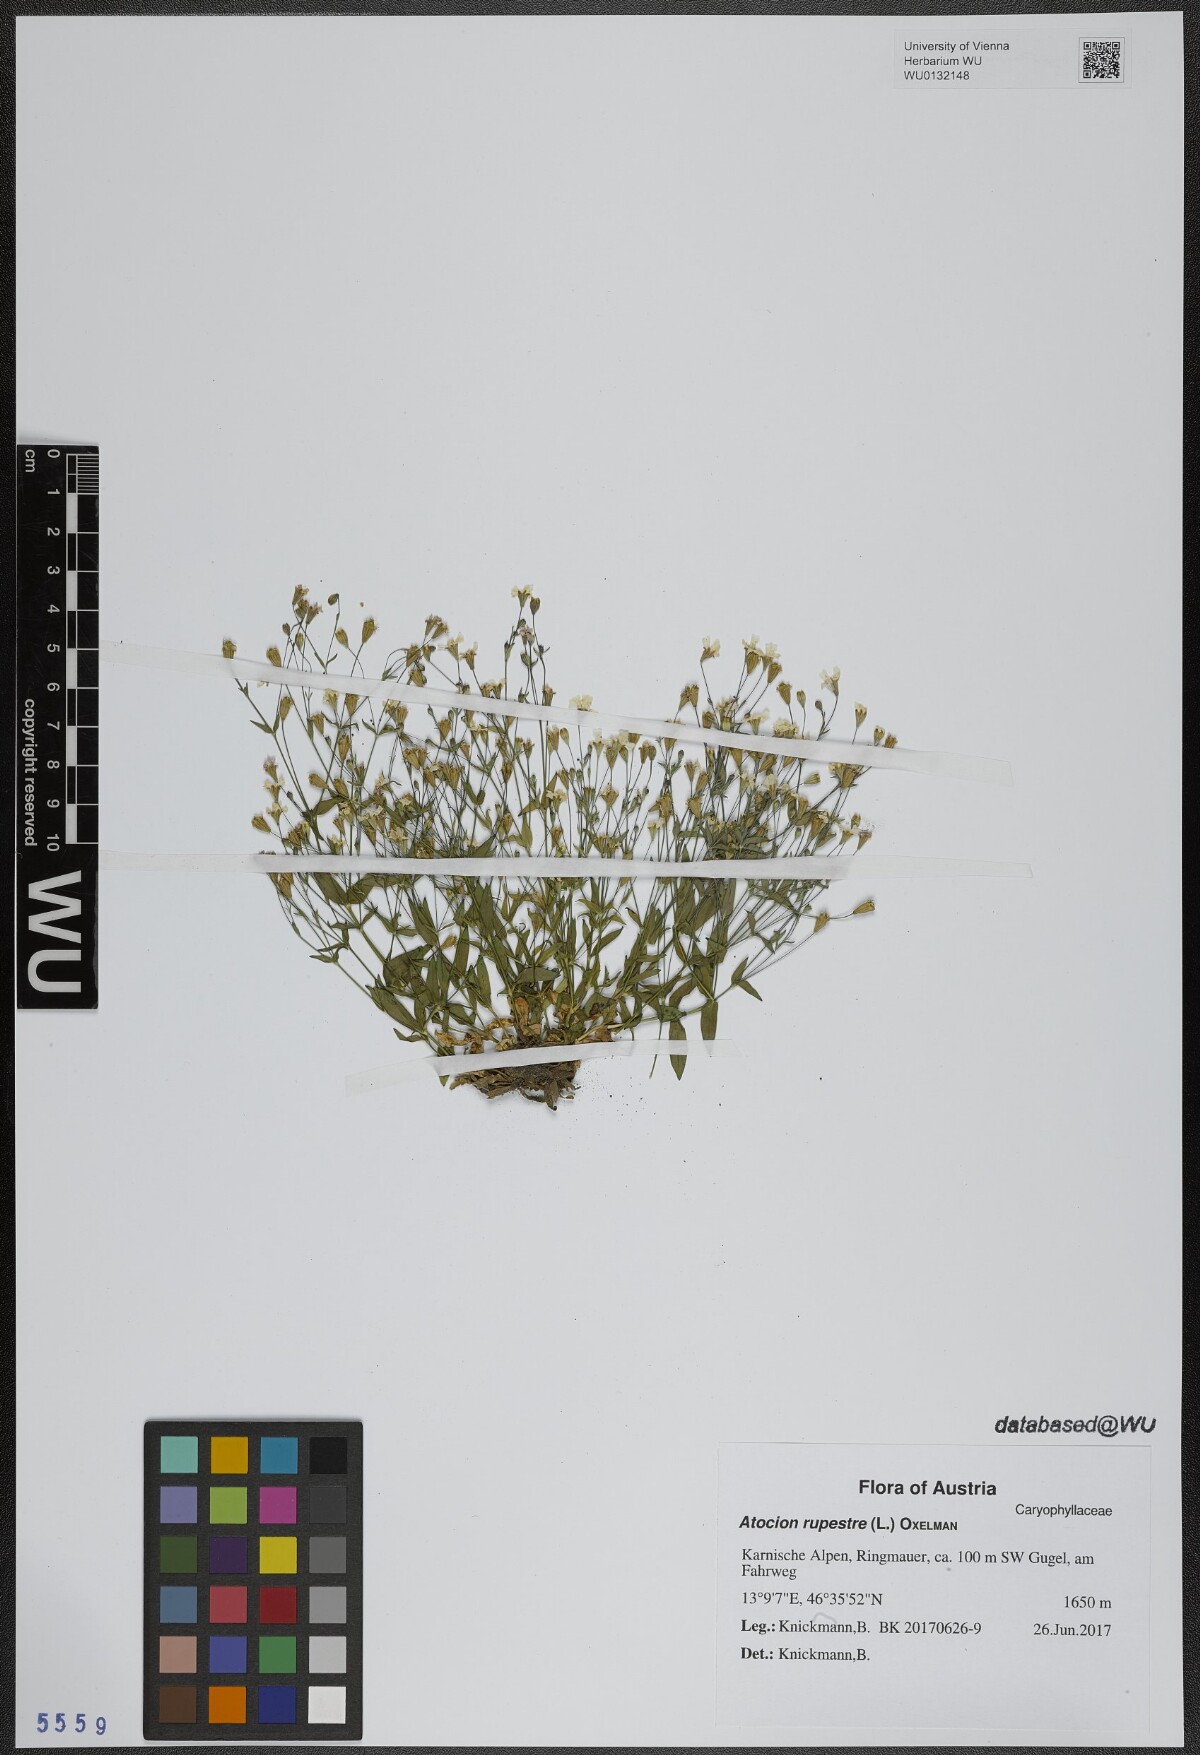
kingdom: Plantae
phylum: Tracheophyta
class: Magnoliopsida
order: Caryophyllales
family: Caryophyllaceae
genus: Atocion
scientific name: Atocion rupestre
